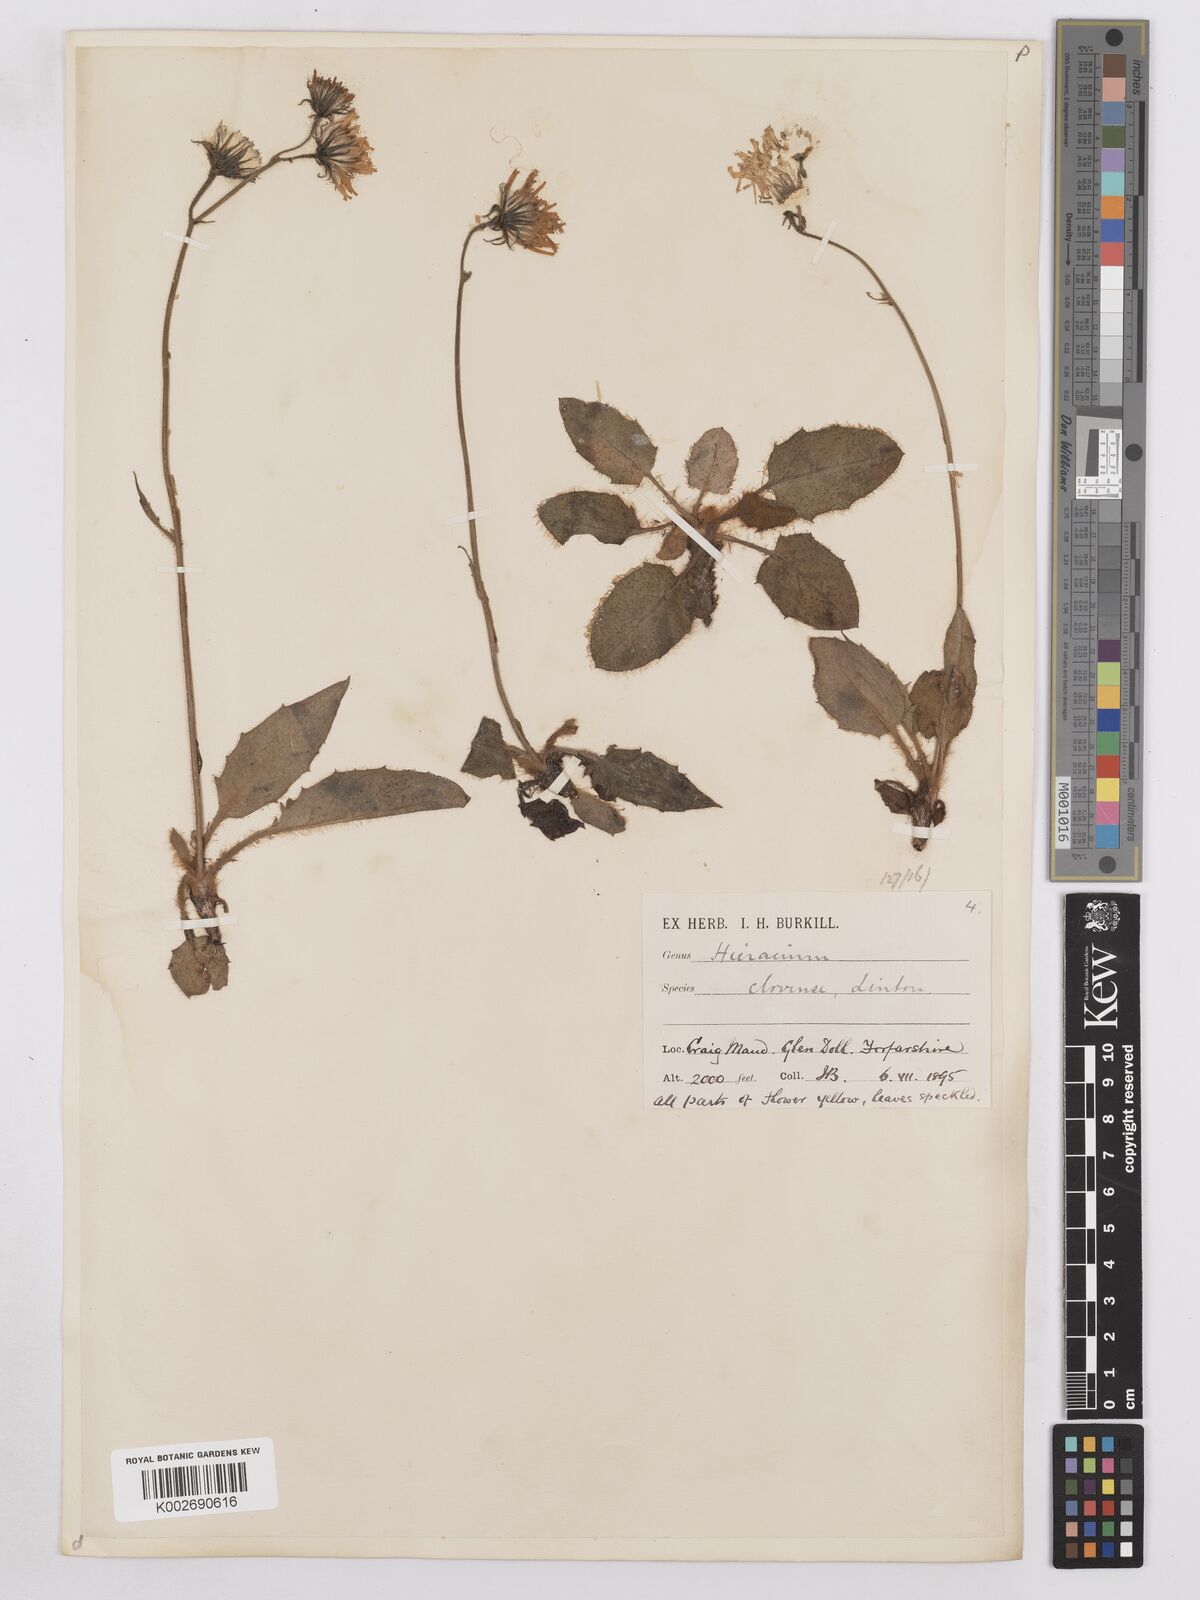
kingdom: Plantae
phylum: Tracheophyta
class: Magnoliopsida
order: Asterales
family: Asteraceae
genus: Hieracium
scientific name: Hieracium clovense
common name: Clova hawkweed
